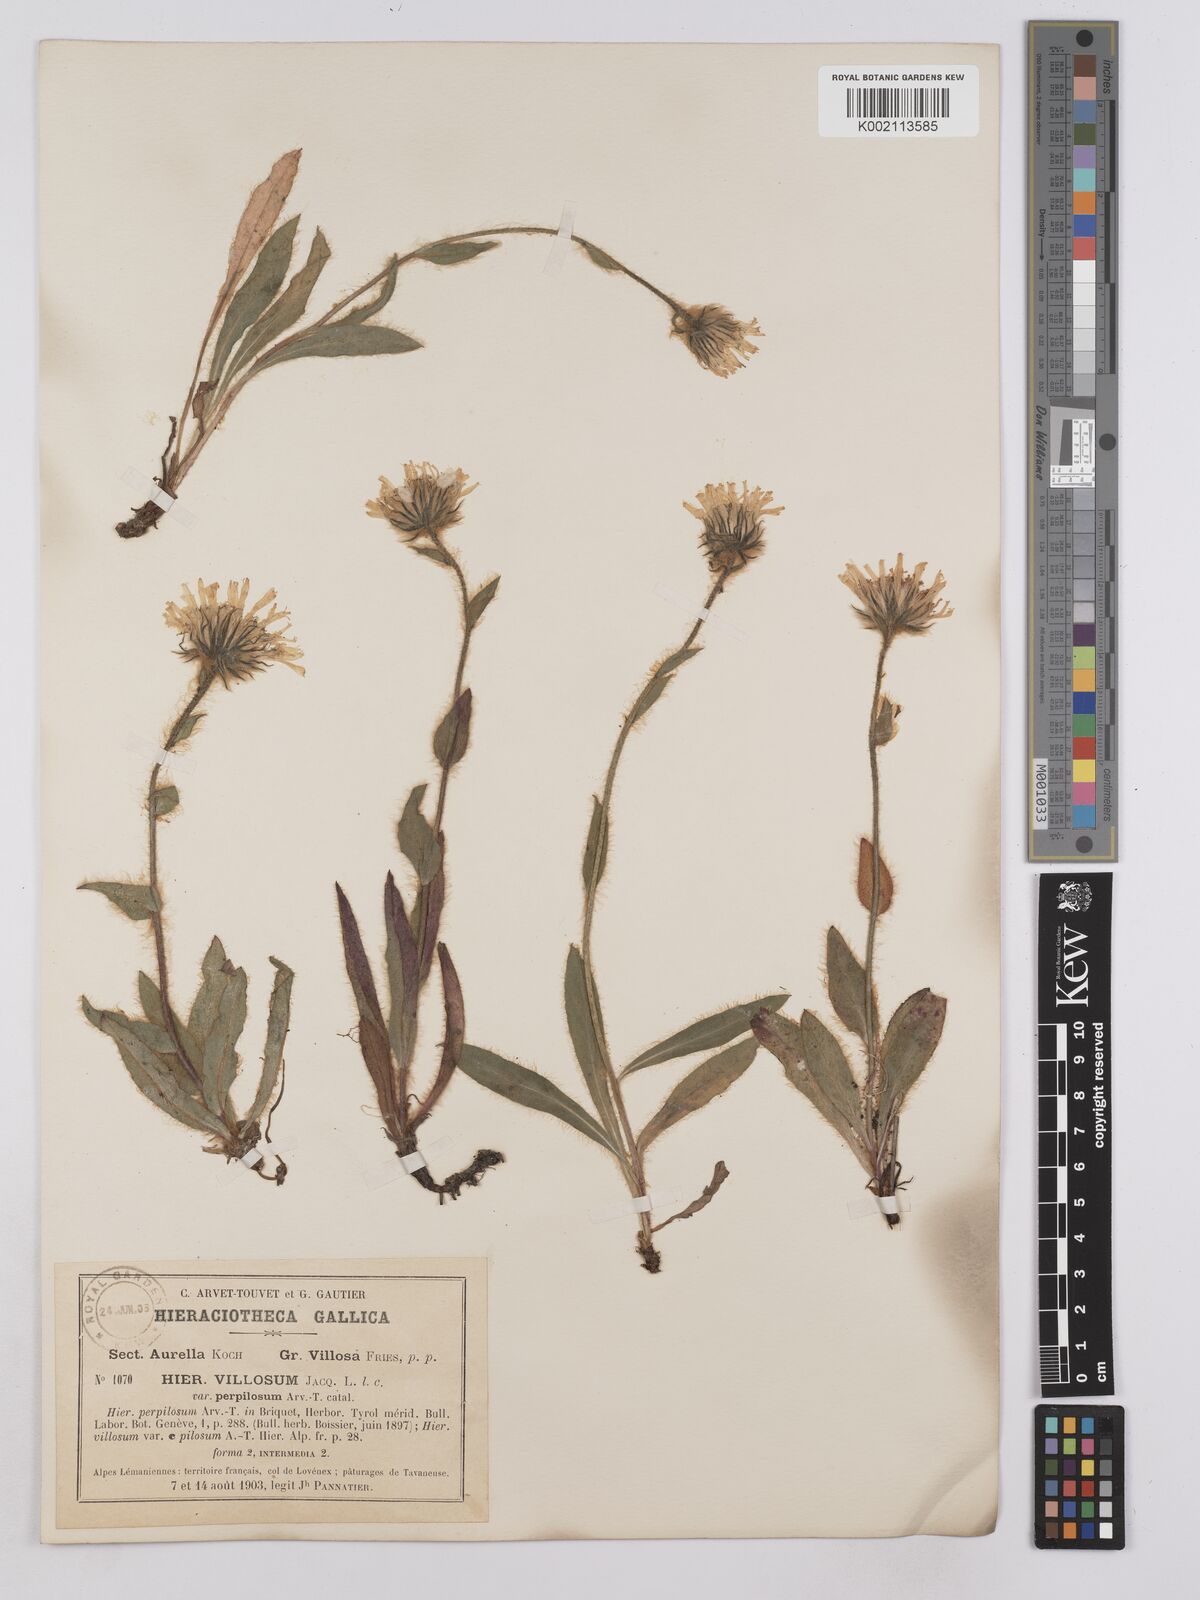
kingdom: Plantae
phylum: Tracheophyta
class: Magnoliopsida
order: Asterales
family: Asteraceae
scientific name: Asteraceae
